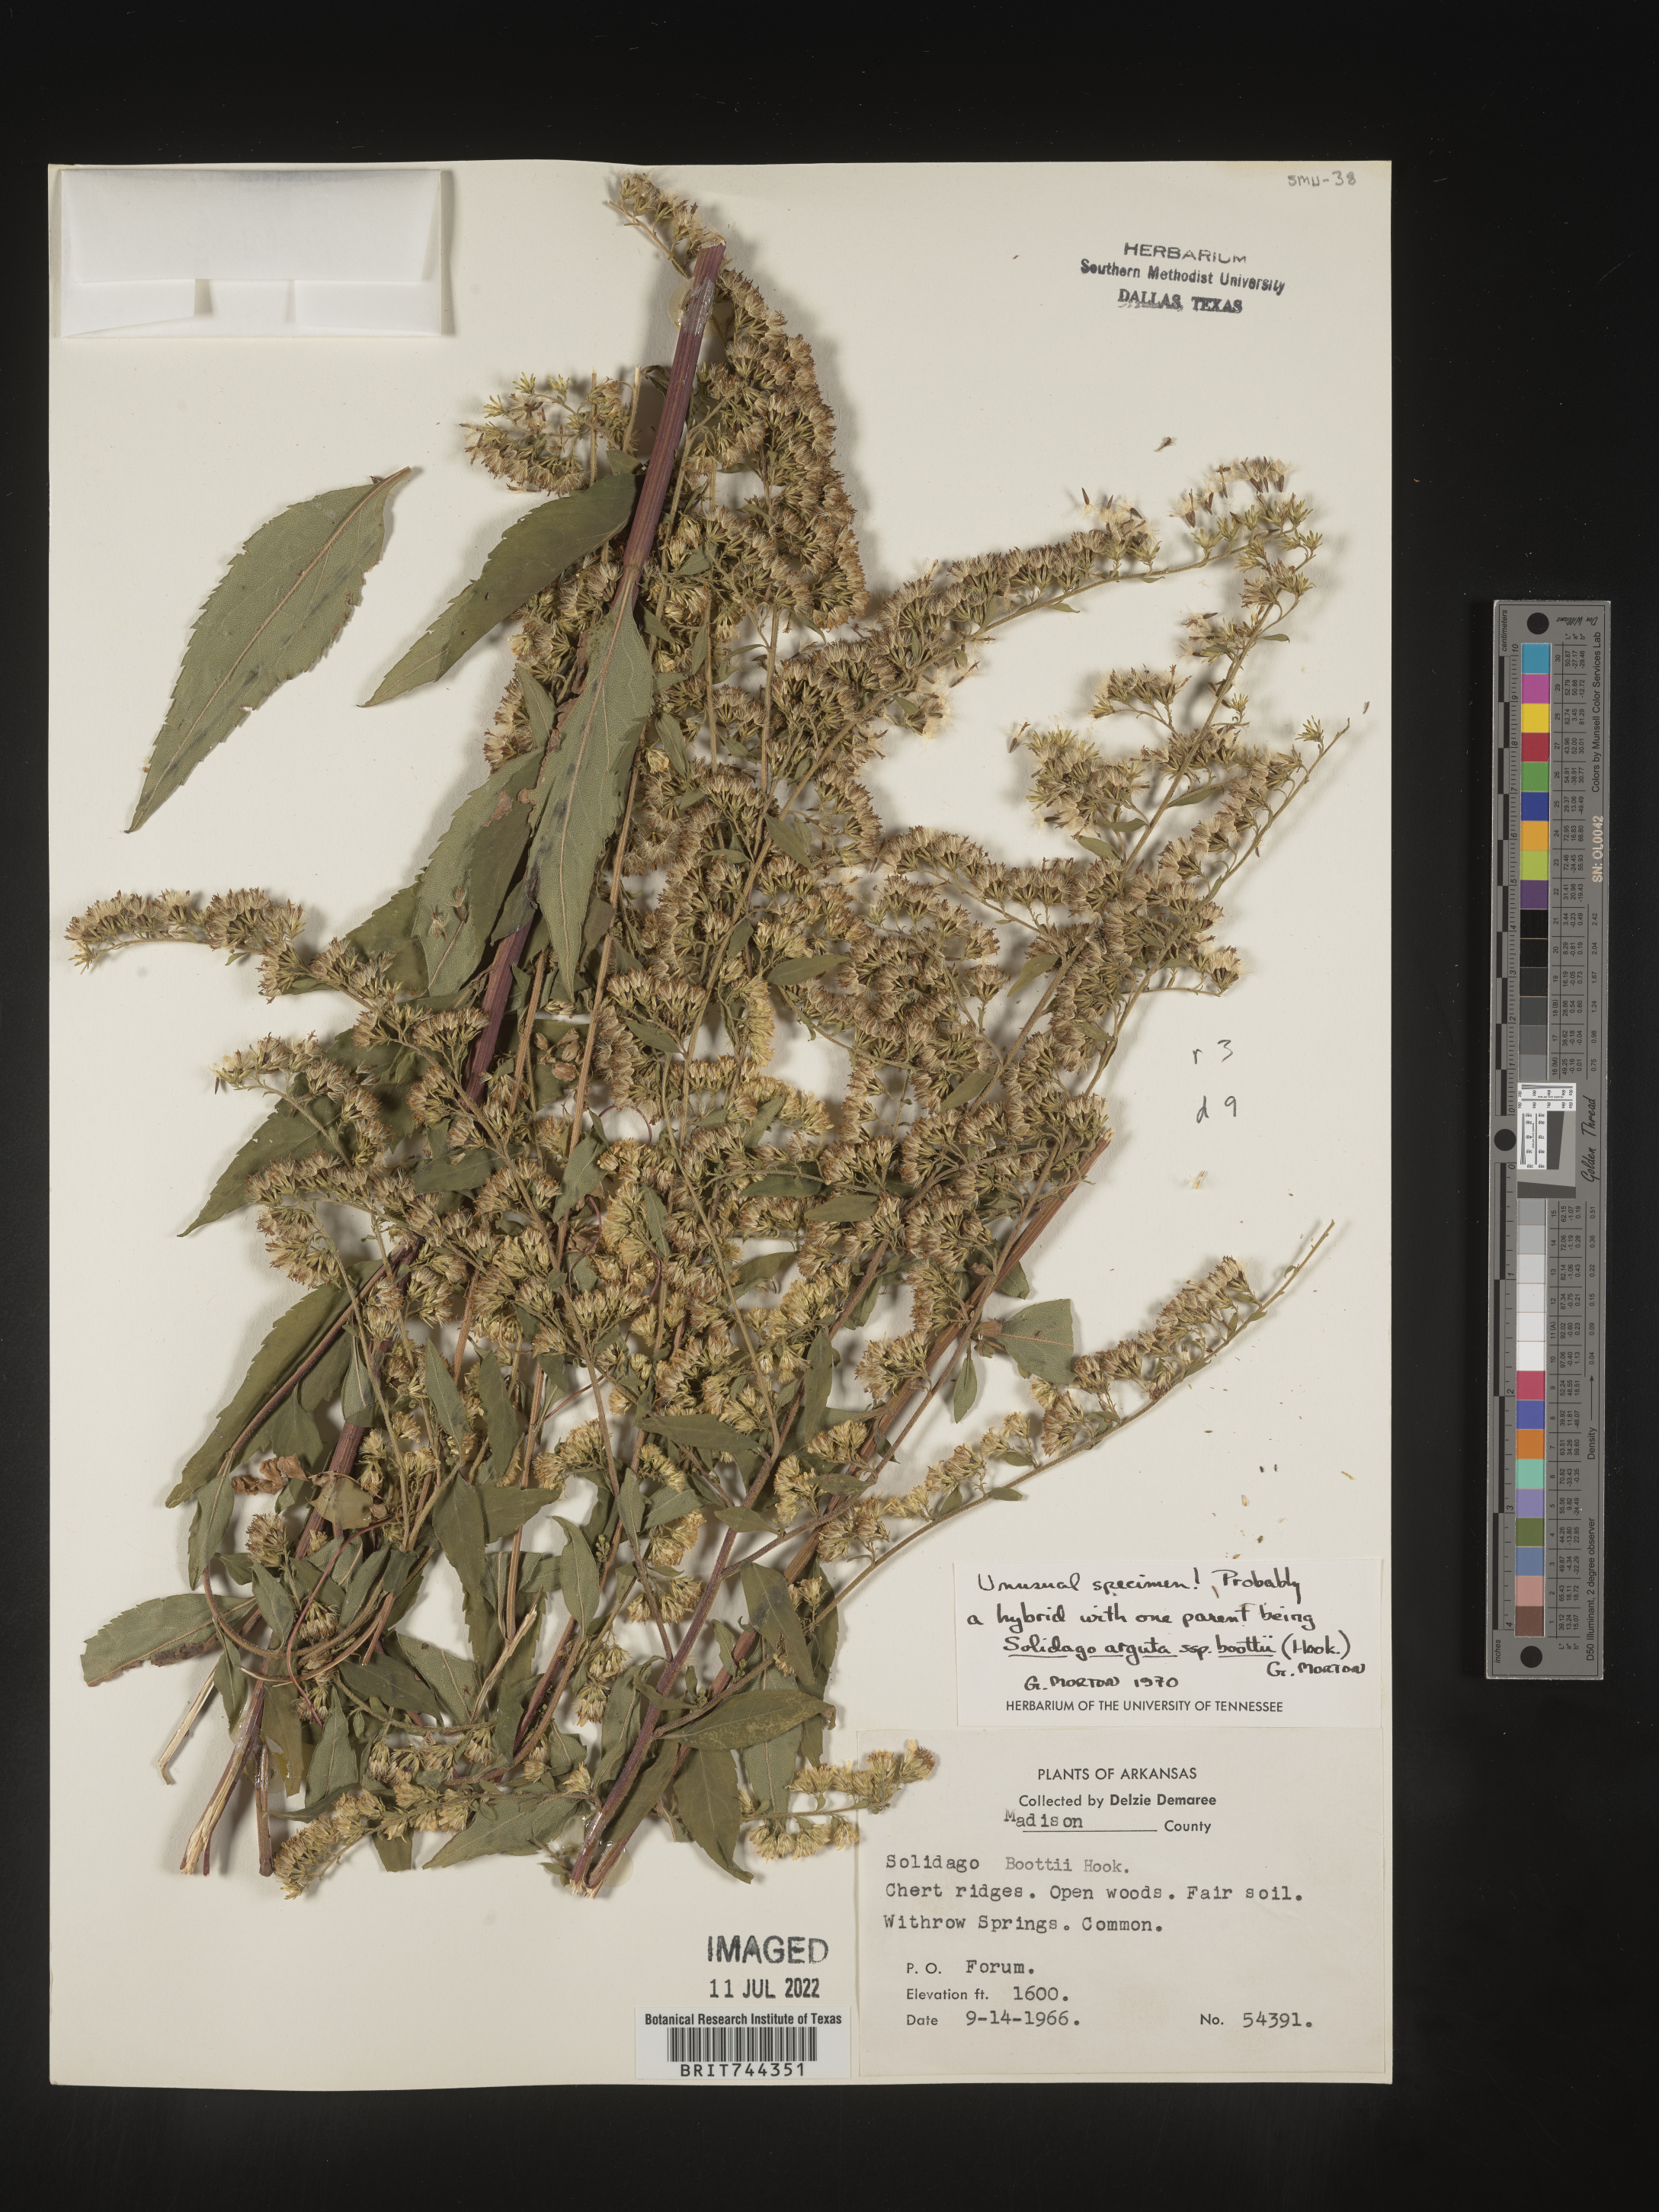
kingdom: Plantae
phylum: Tracheophyta
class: Magnoliopsida
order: Asterales
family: Asteraceae
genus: Solidago
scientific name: Solidago arguta
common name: Atlantic goldenrod
